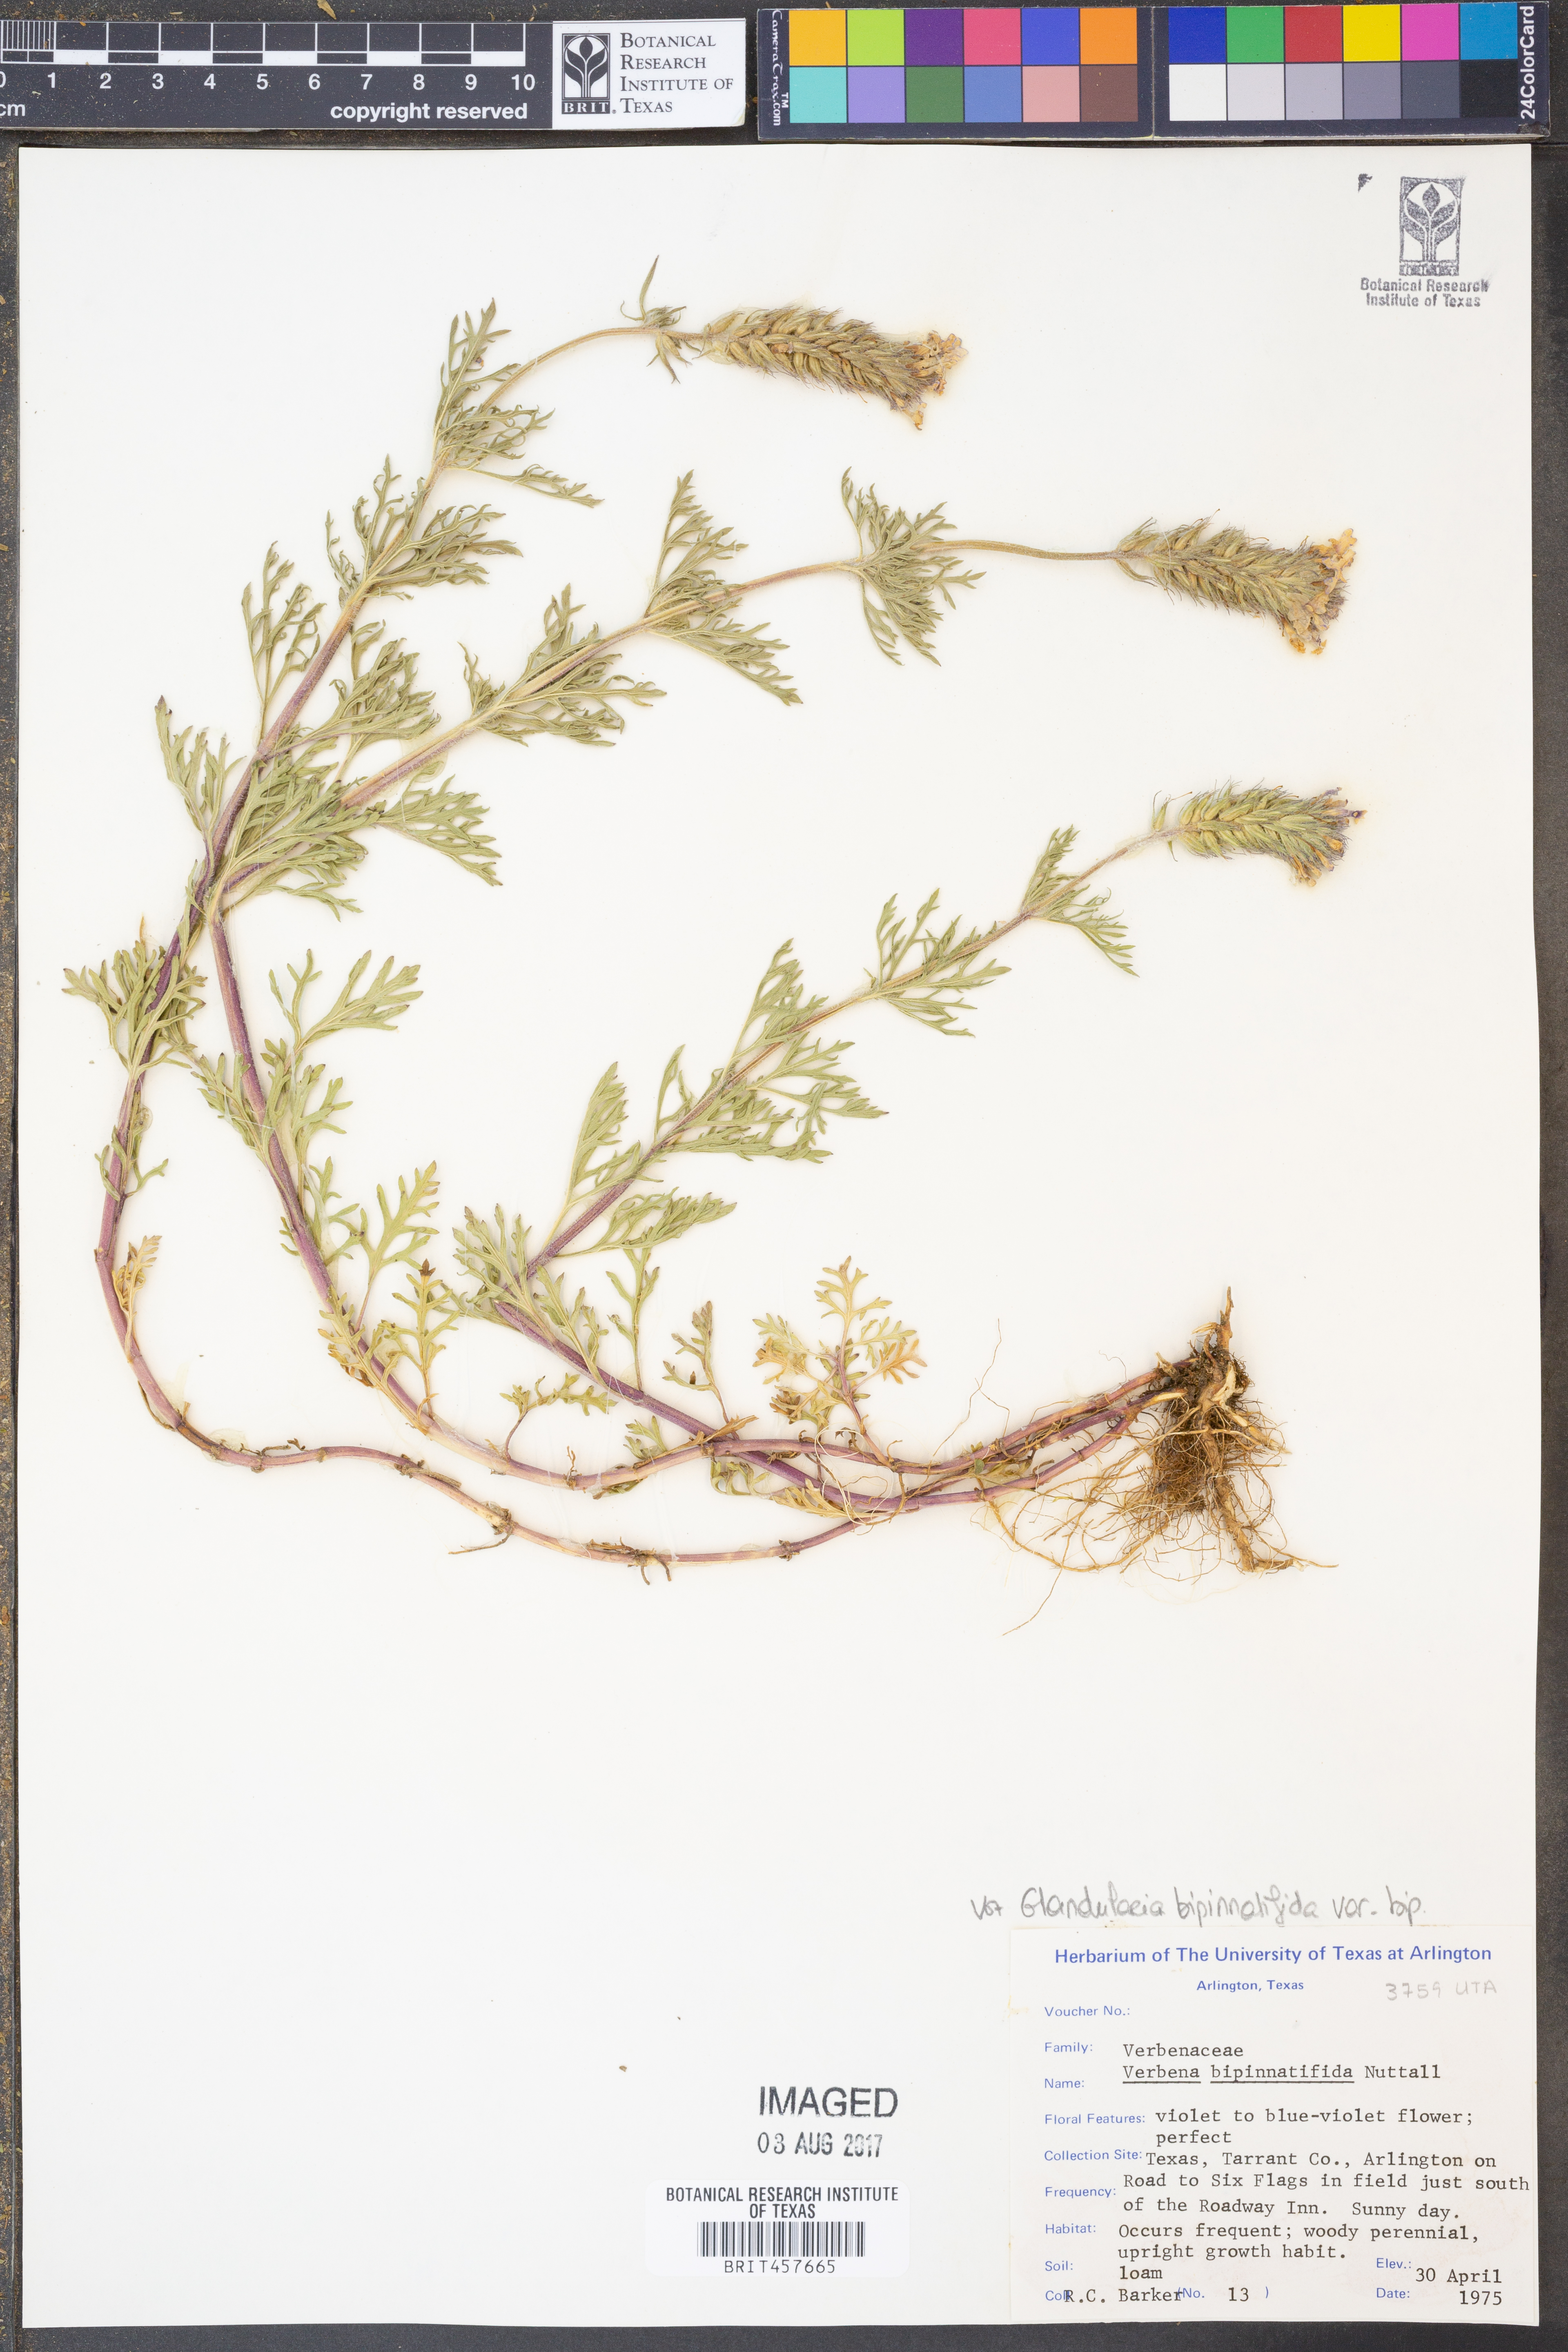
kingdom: Plantae
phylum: Tracheophyta
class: Magnoliopsida
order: Lamiales
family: Verbenaceae
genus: Verbena
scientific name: Verbena bipinnatifida
